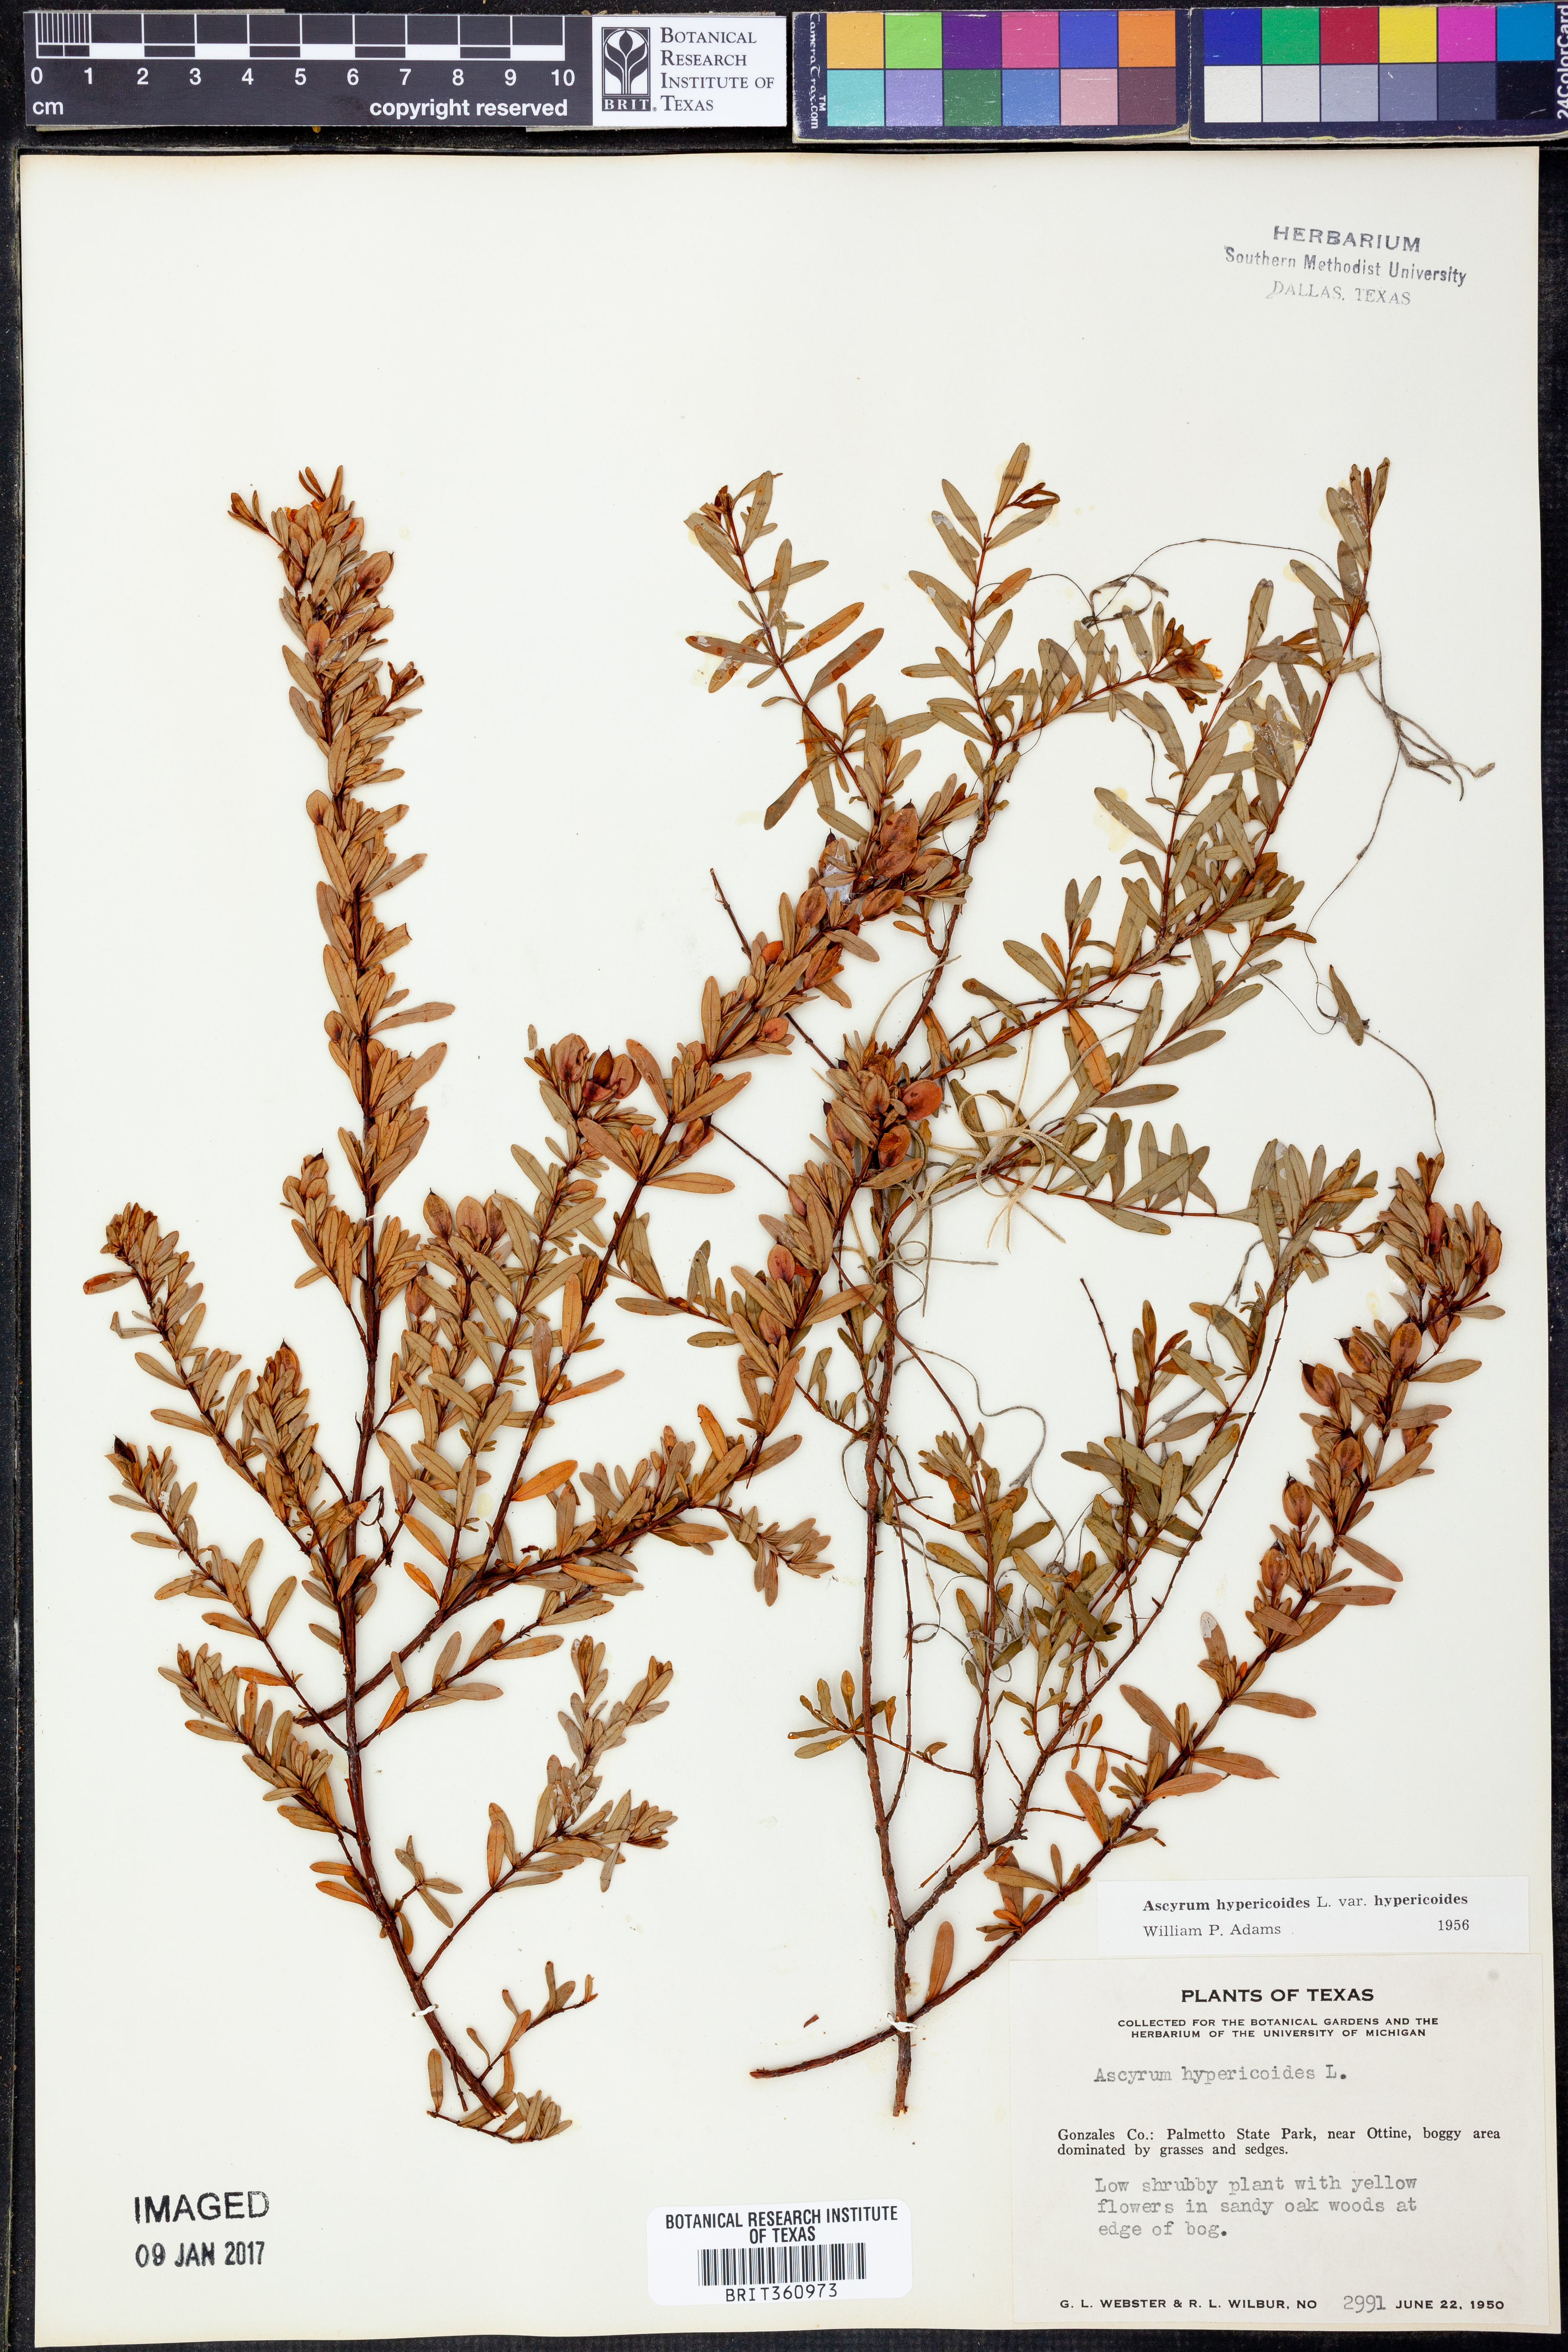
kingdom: Plantae
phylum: Tracheophyta
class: Magnoliopsida
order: Malpighiales
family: Hypericaceae
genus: Hypericum
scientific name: Hypericum hypericoides
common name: St. andrew's cross
